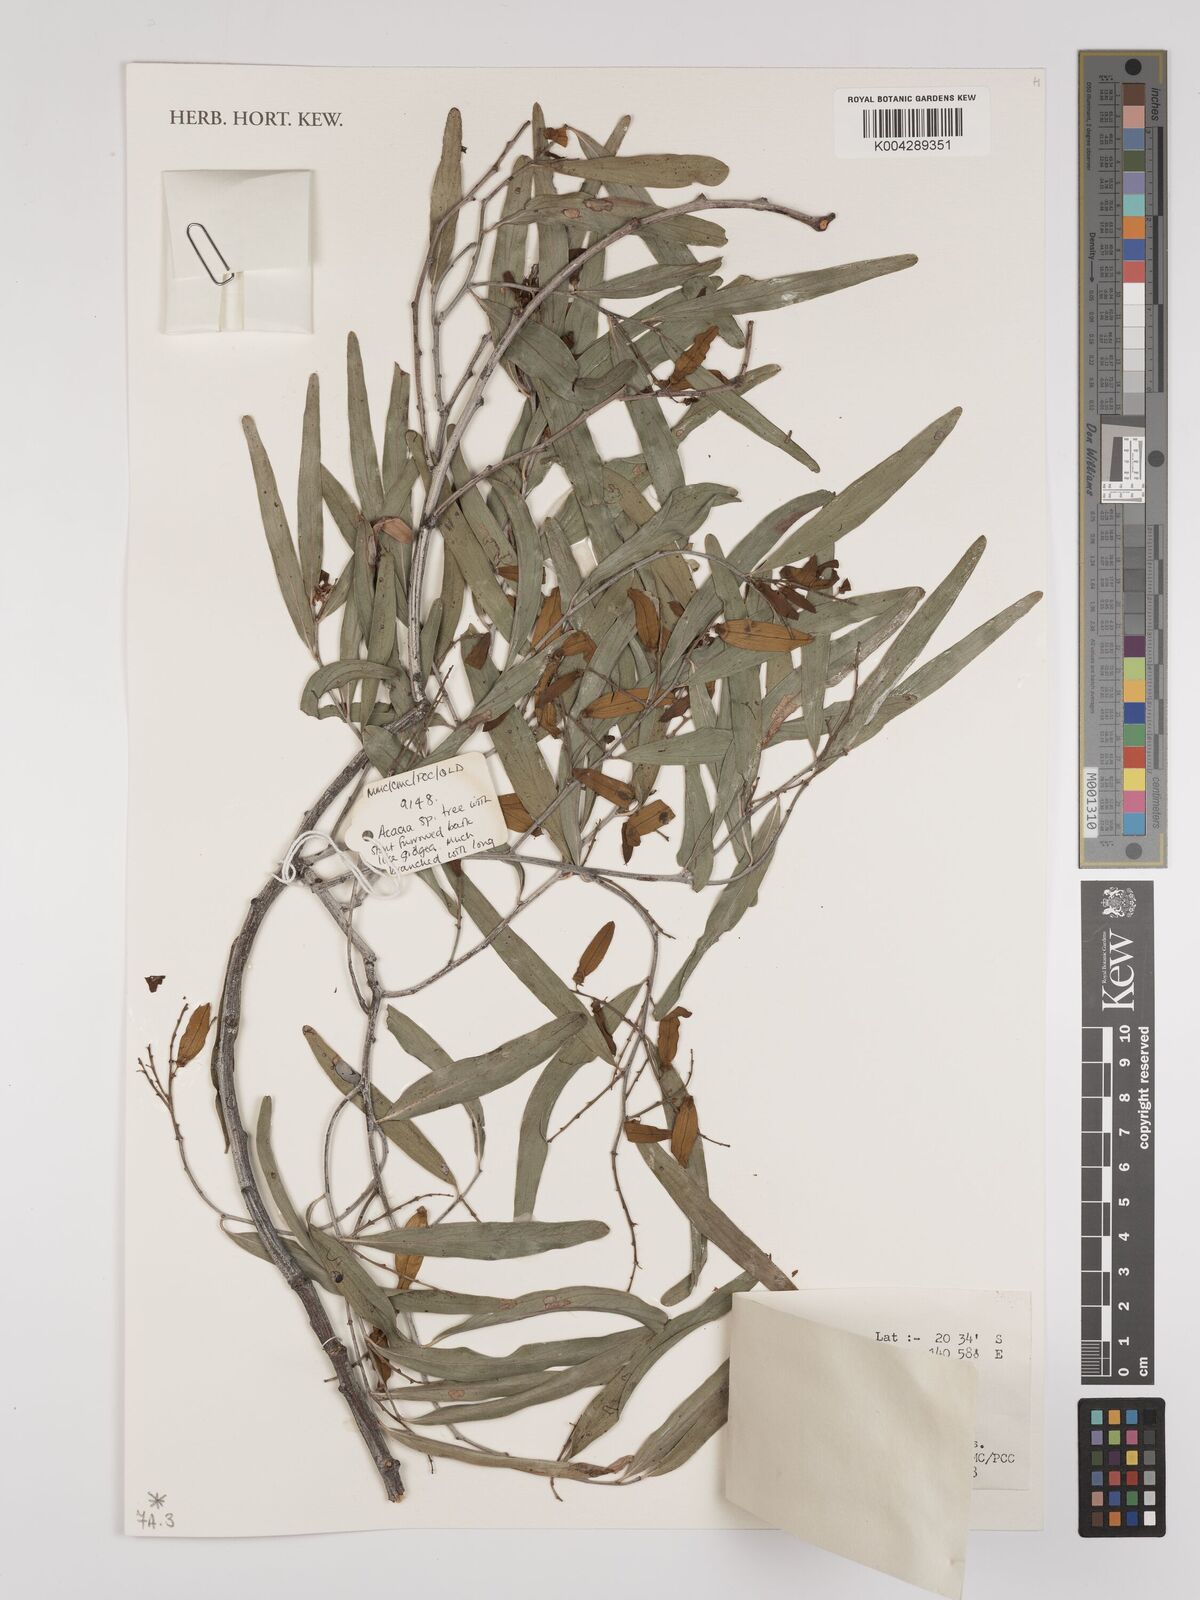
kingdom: Plantae
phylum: Tracheophyta
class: Magnoliopsida
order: Rosales
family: Rhamnaceae
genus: Ventilago
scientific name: Ventilago viminalis
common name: Medicine-bark
